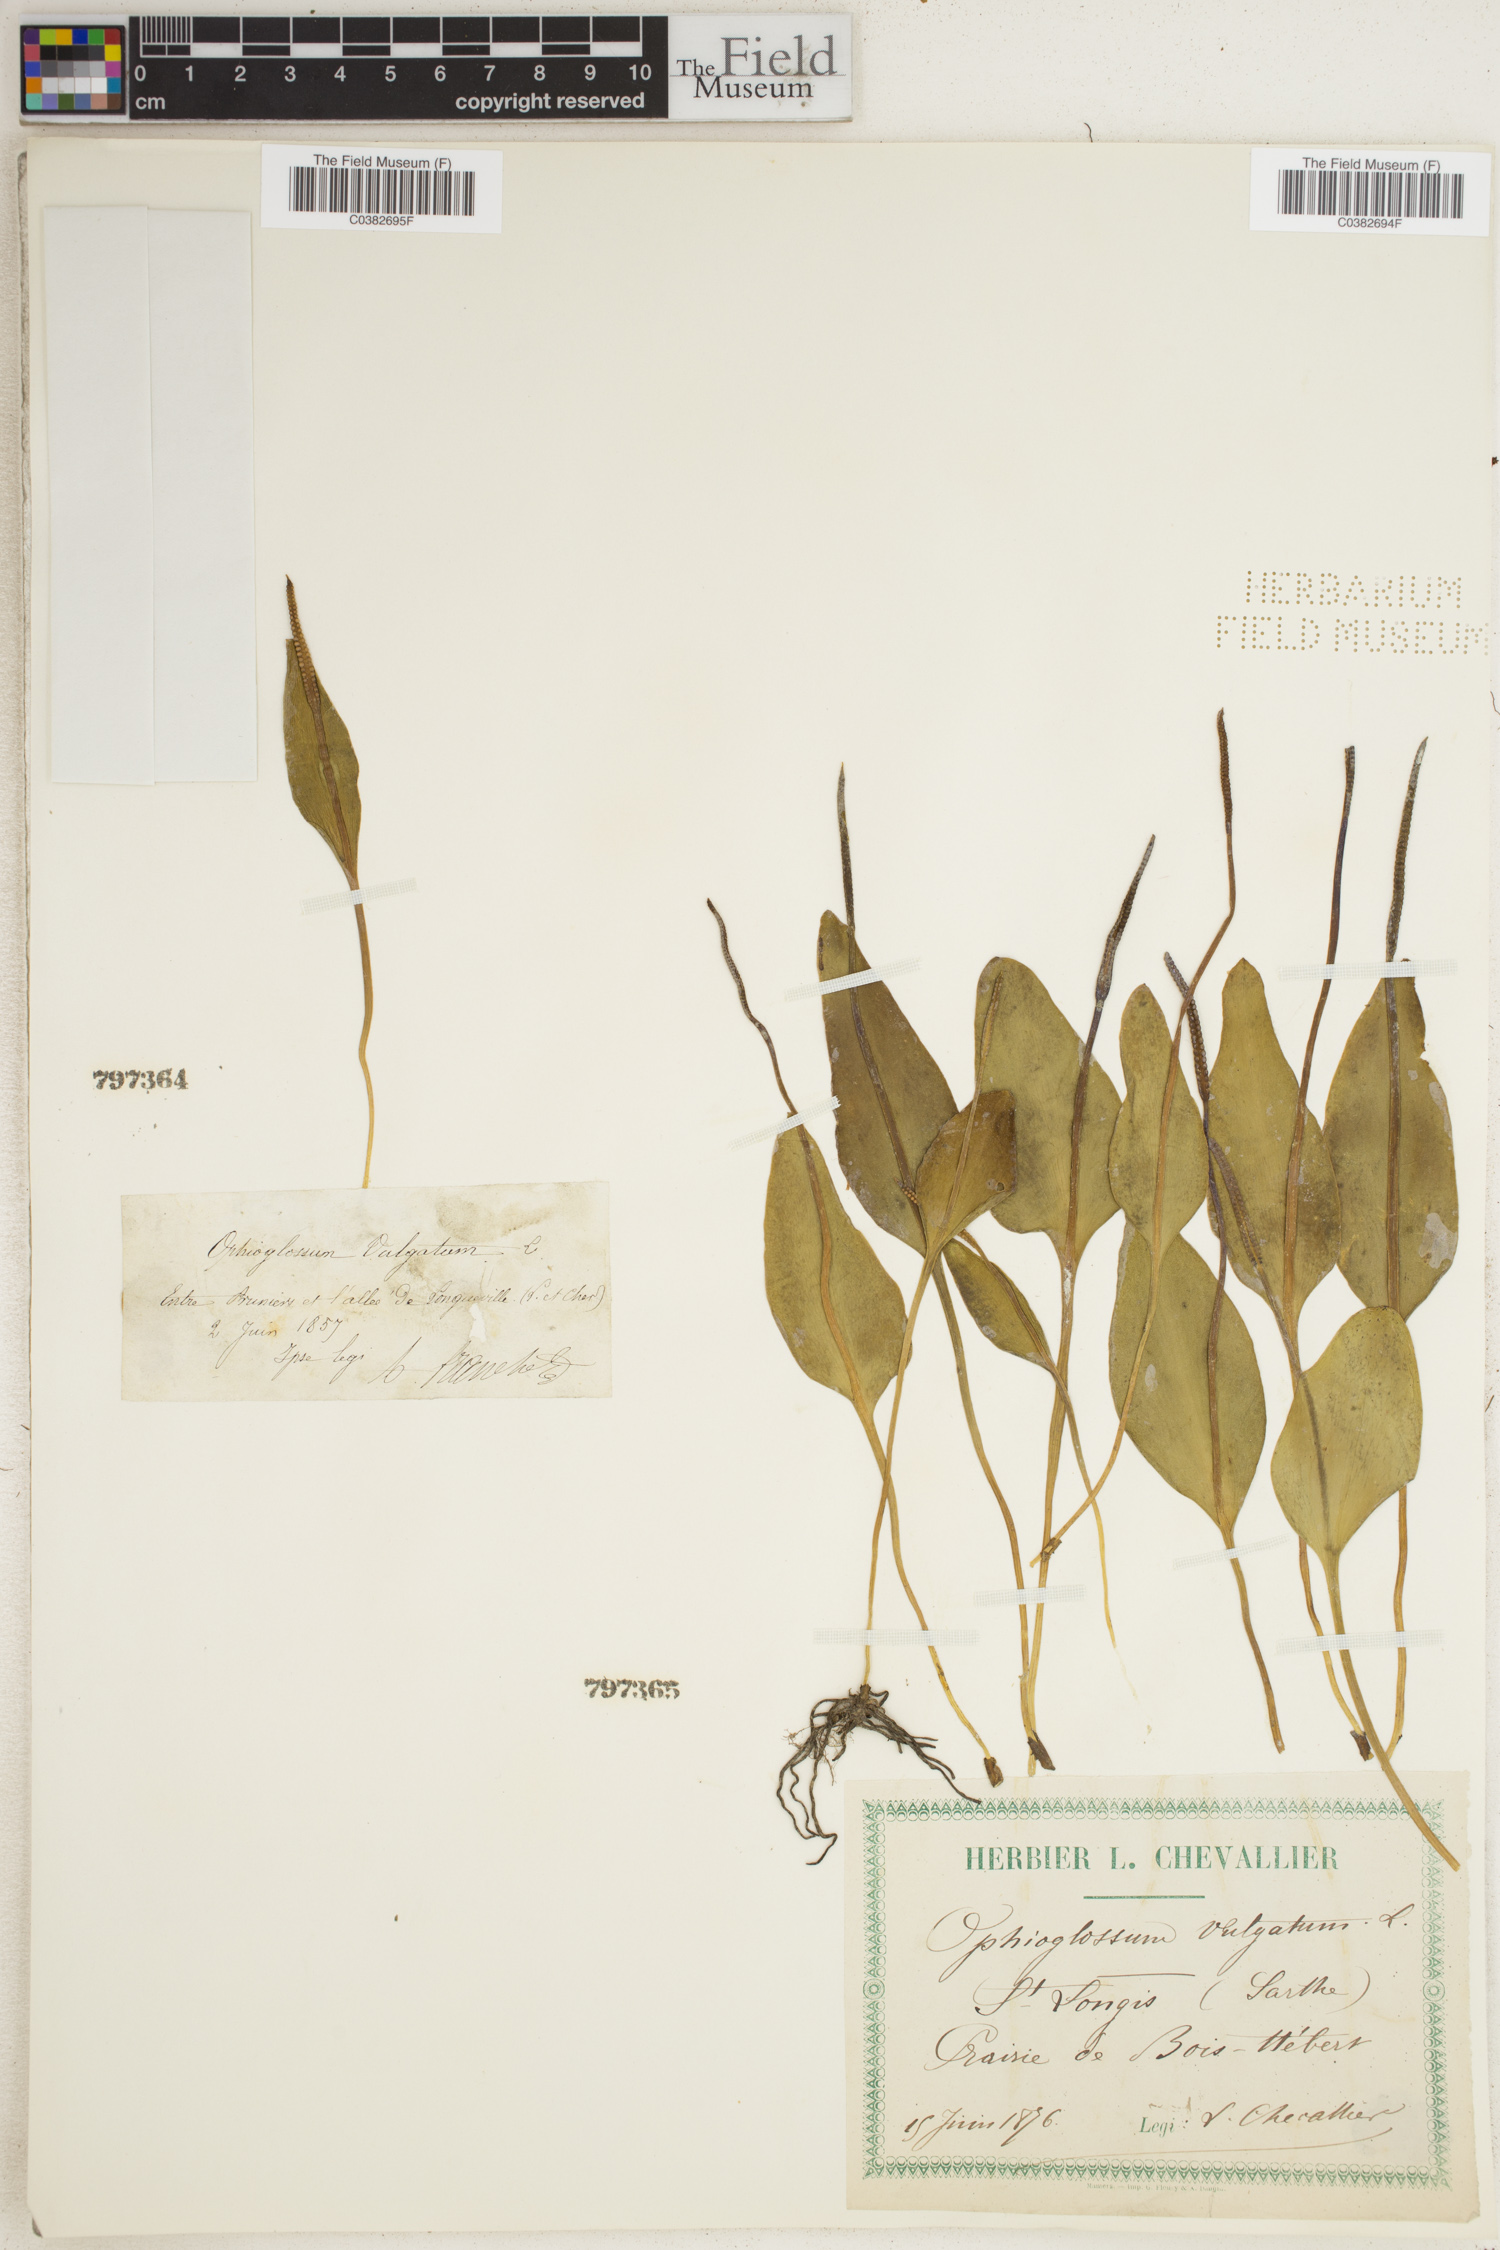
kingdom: Plantae
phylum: Tracheophyta
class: Polypodiopsida
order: Ophioglossales
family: Ophioglossaceae
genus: Ophioglossum
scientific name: Ophioglossum vulgatum
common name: Adder's-tongue
